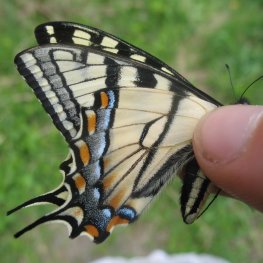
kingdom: Animalia
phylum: Arthropoda
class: Insecta
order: Lepidoptera
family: Papilionidae
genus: Pterourus
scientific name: Pterourus canadensis
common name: Canadian Tiger Swallowtail
